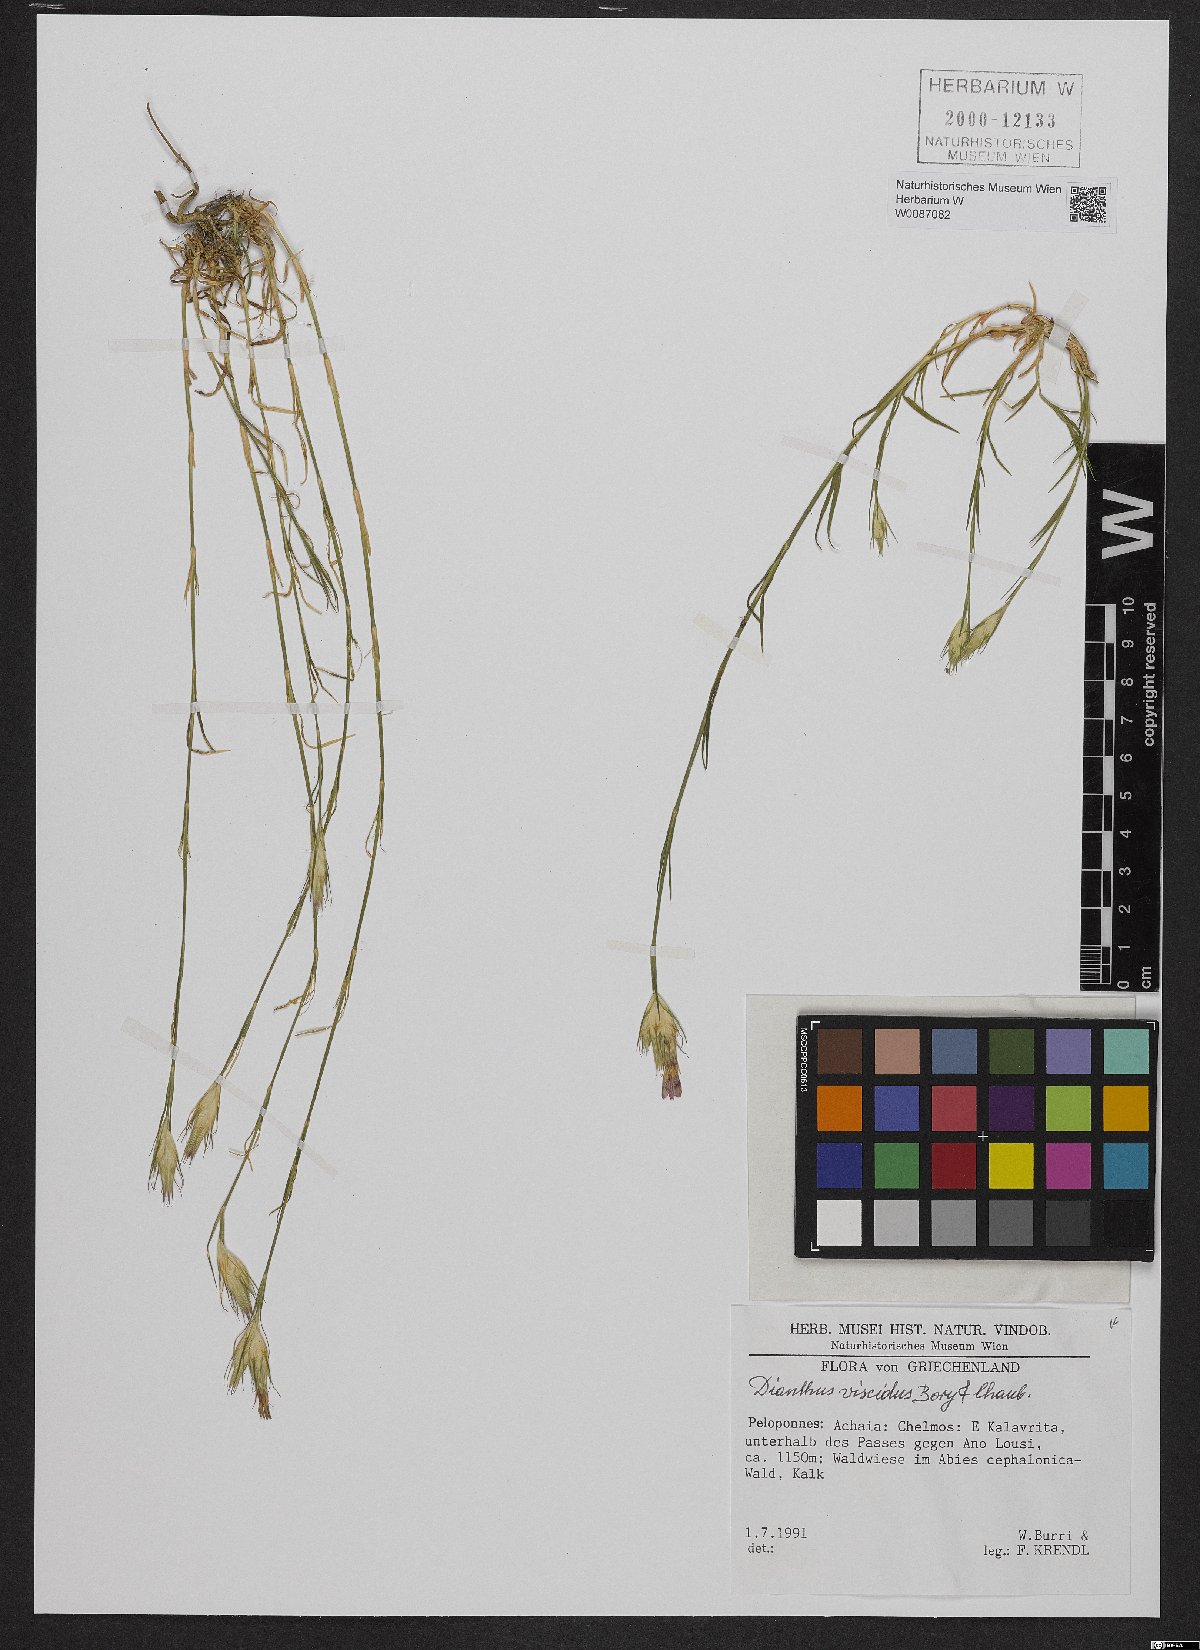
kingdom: Plantae
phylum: Tracheophyta
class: Magnoliopsida
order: Caryophyllales
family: Caryophyllaceae
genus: Dianthus
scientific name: Dianthus viscidus
